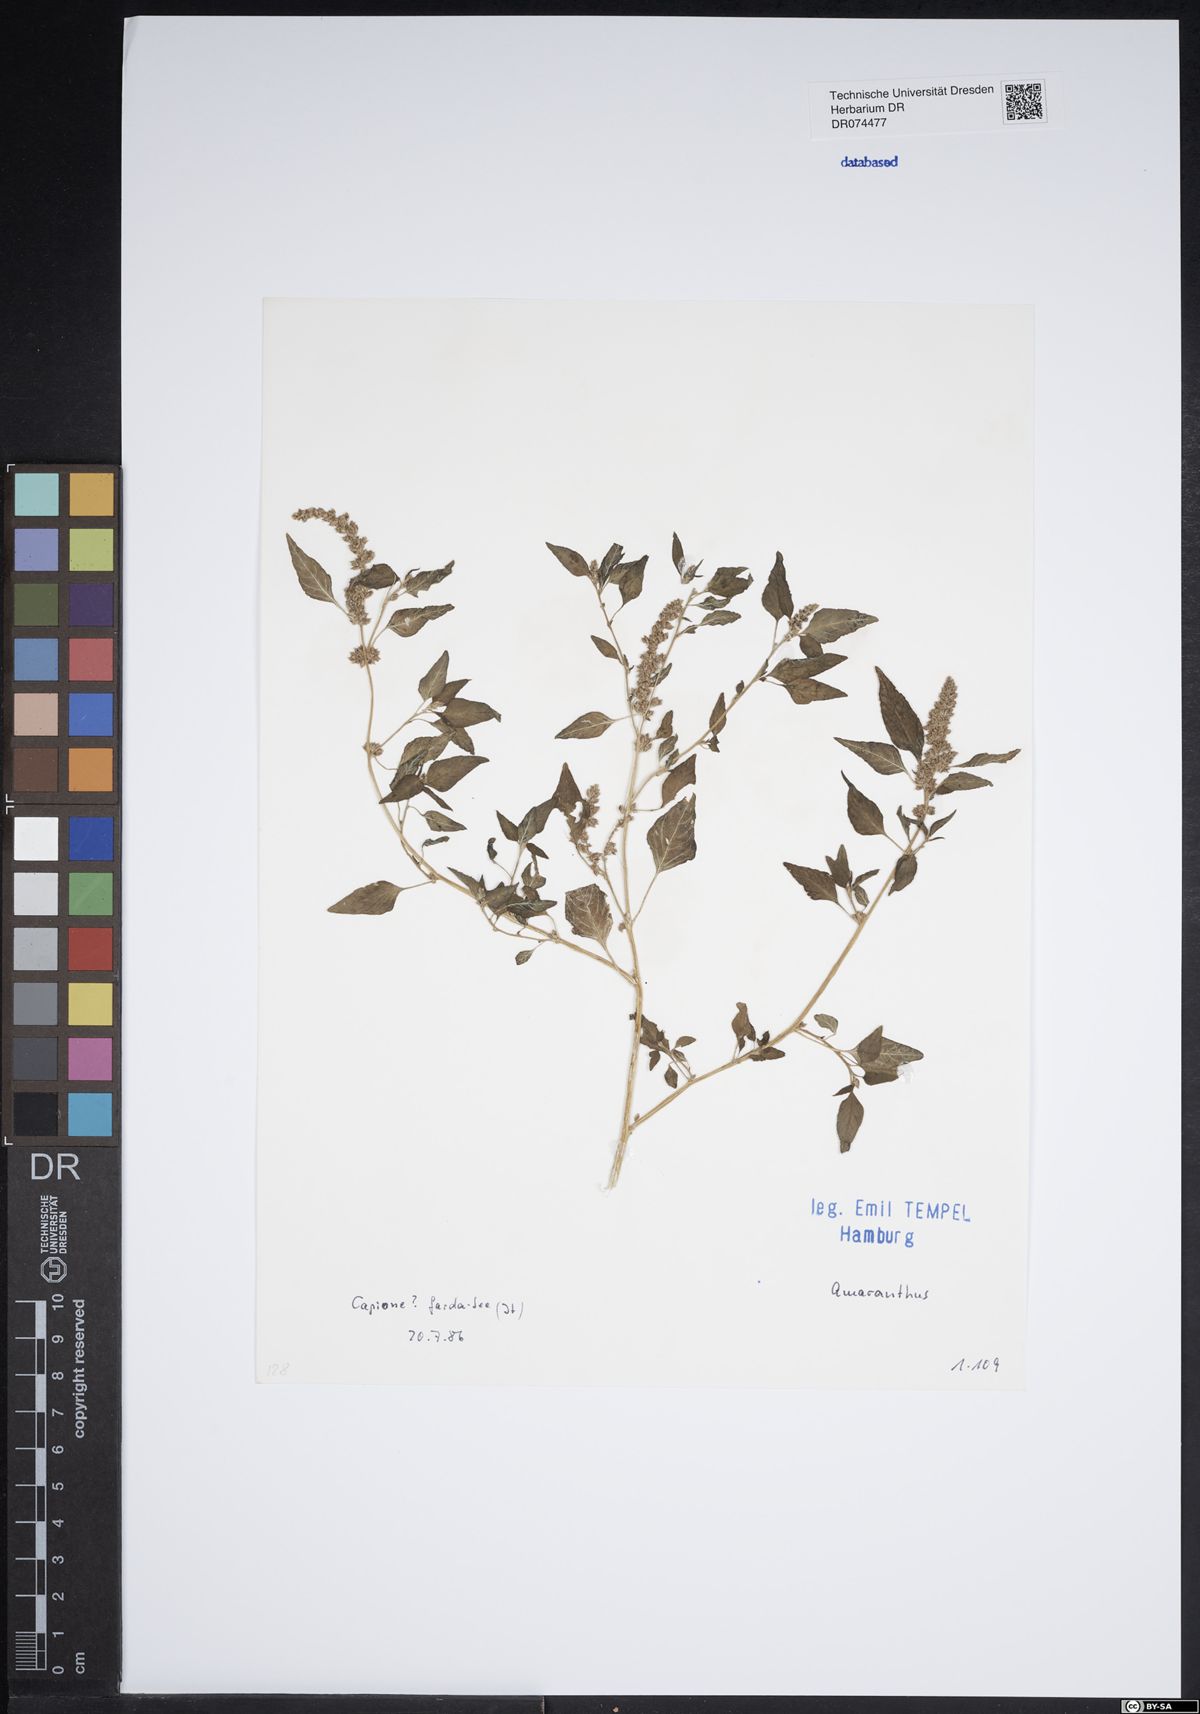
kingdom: Plantae
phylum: Tracheophyta
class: Magnoliopsida
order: Caryophyllales
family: Amaranthaceae
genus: Amaranthus
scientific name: Amaranthus
